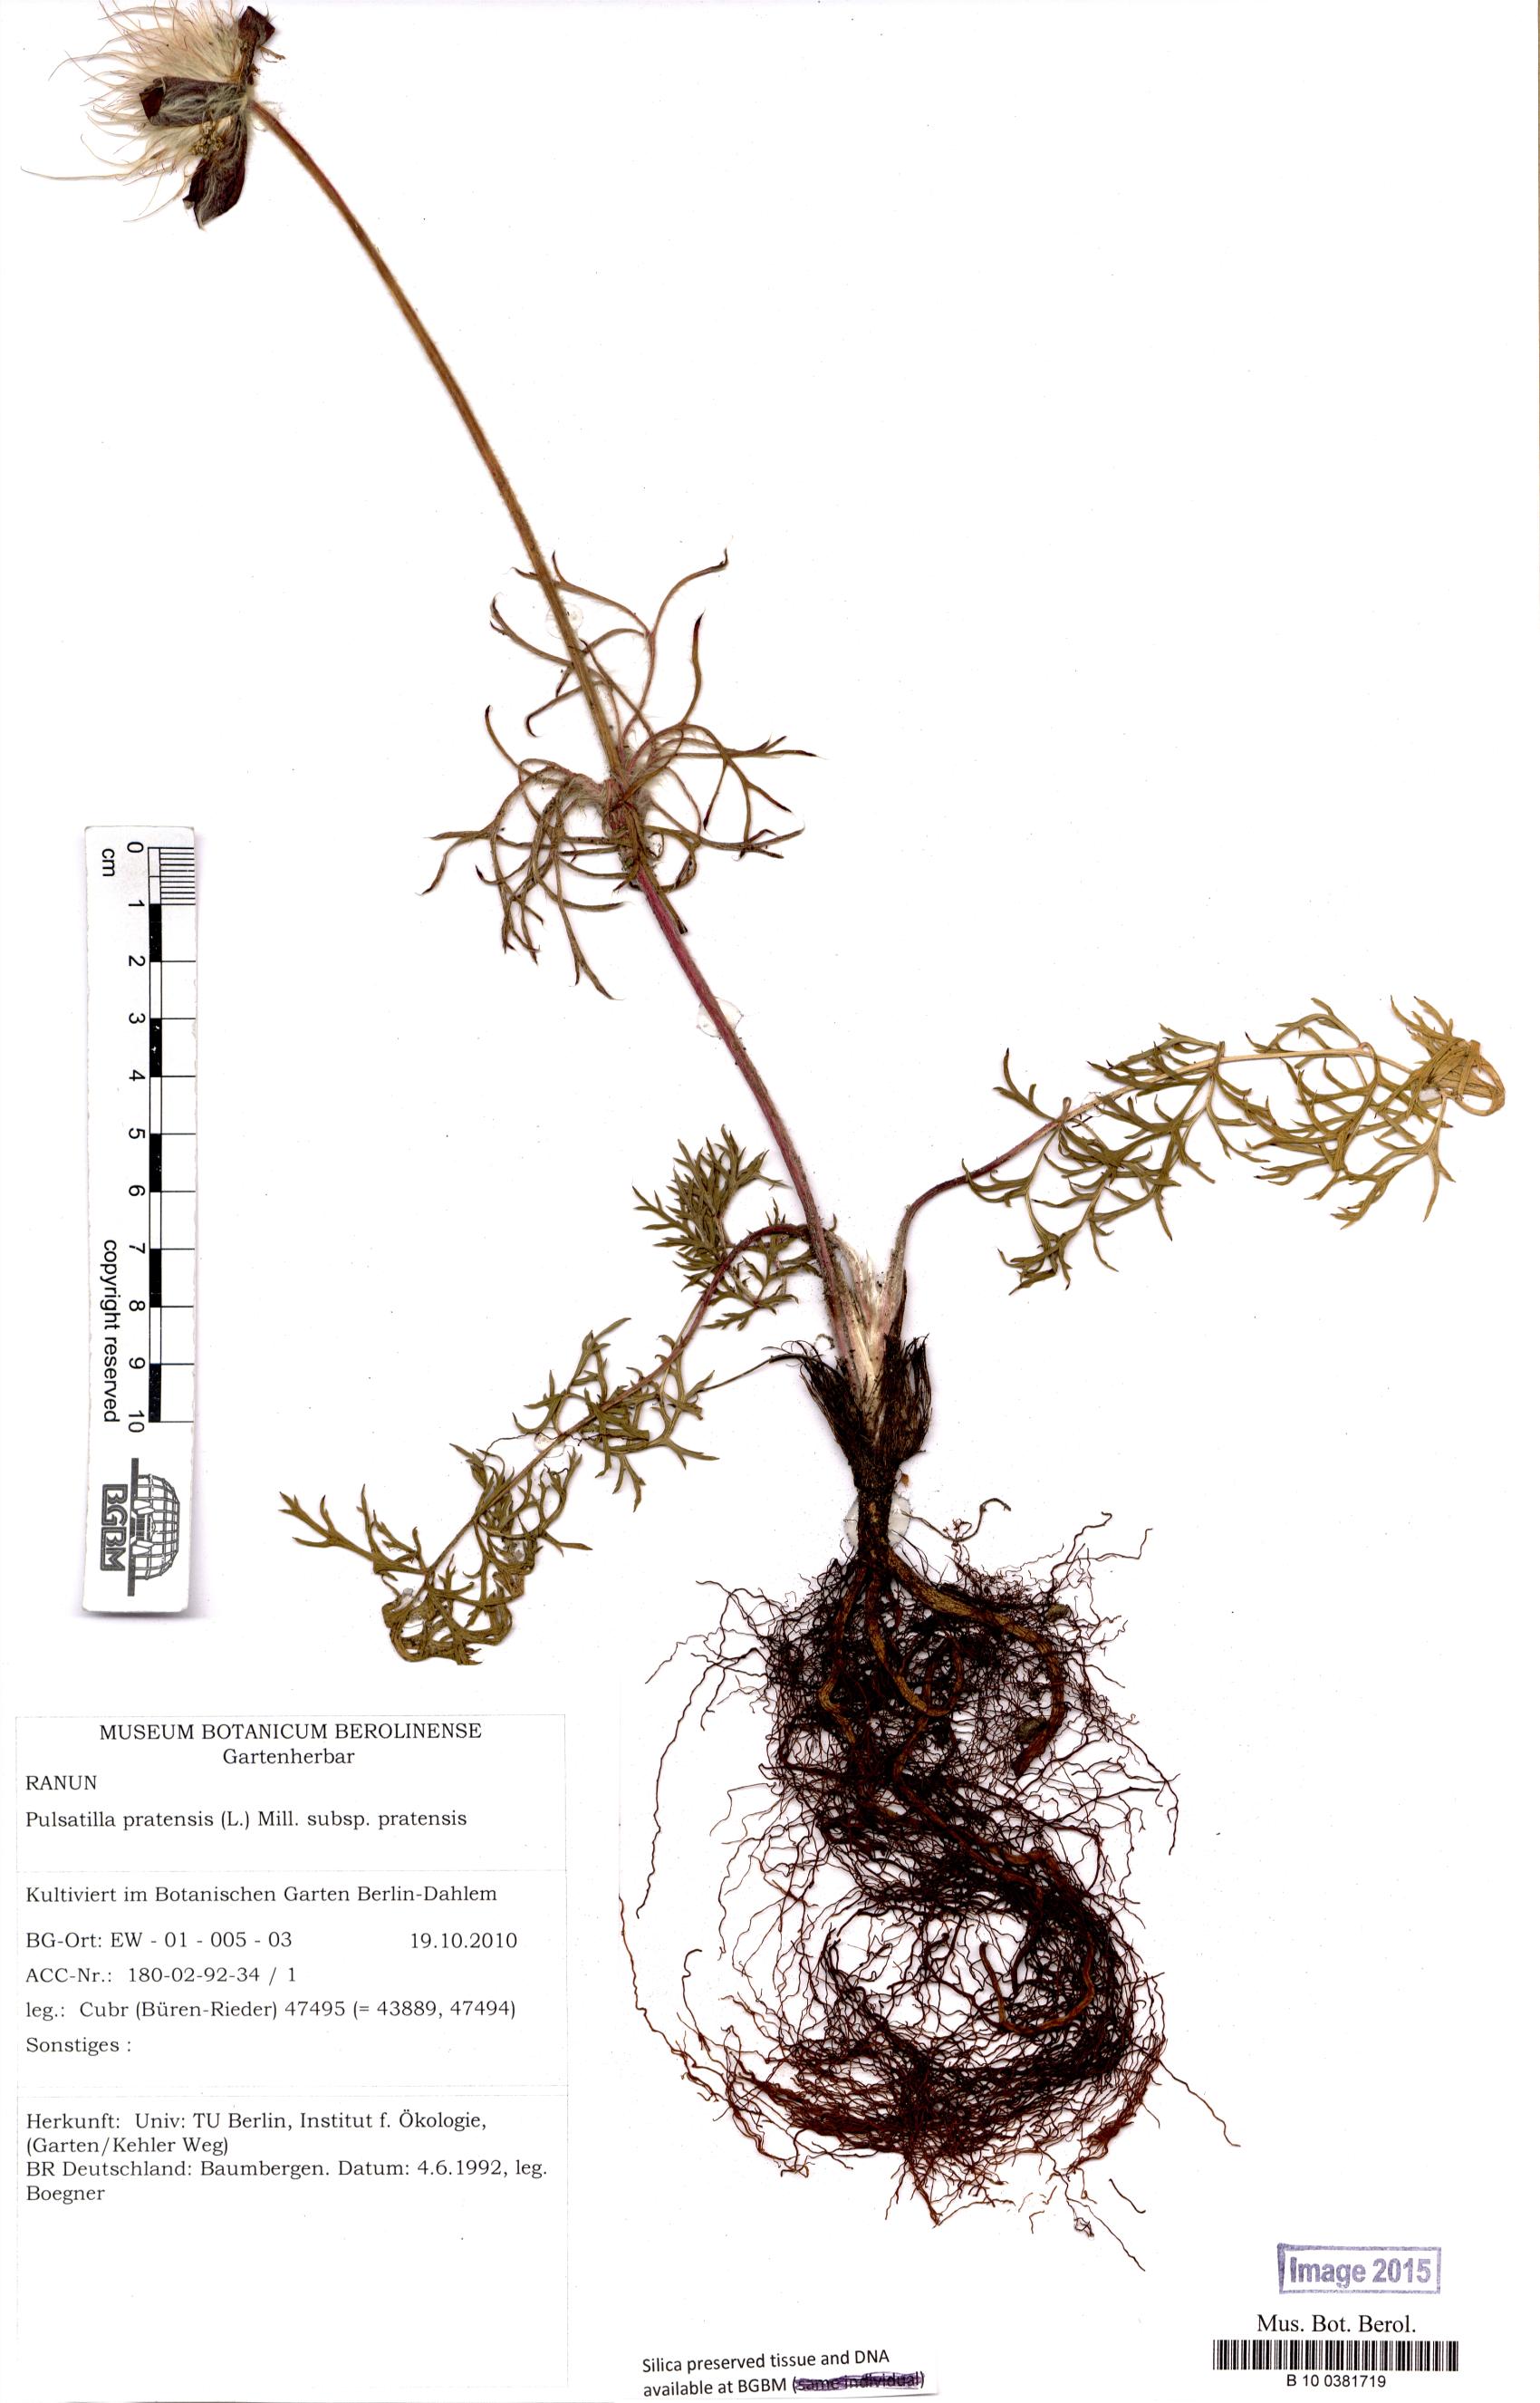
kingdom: Plantae
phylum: Tracheophyta
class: Magnoliopsida
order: Ranunculales
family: Ranunculaceae
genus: Pulsatilla
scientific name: Pulsatilla pratensis
